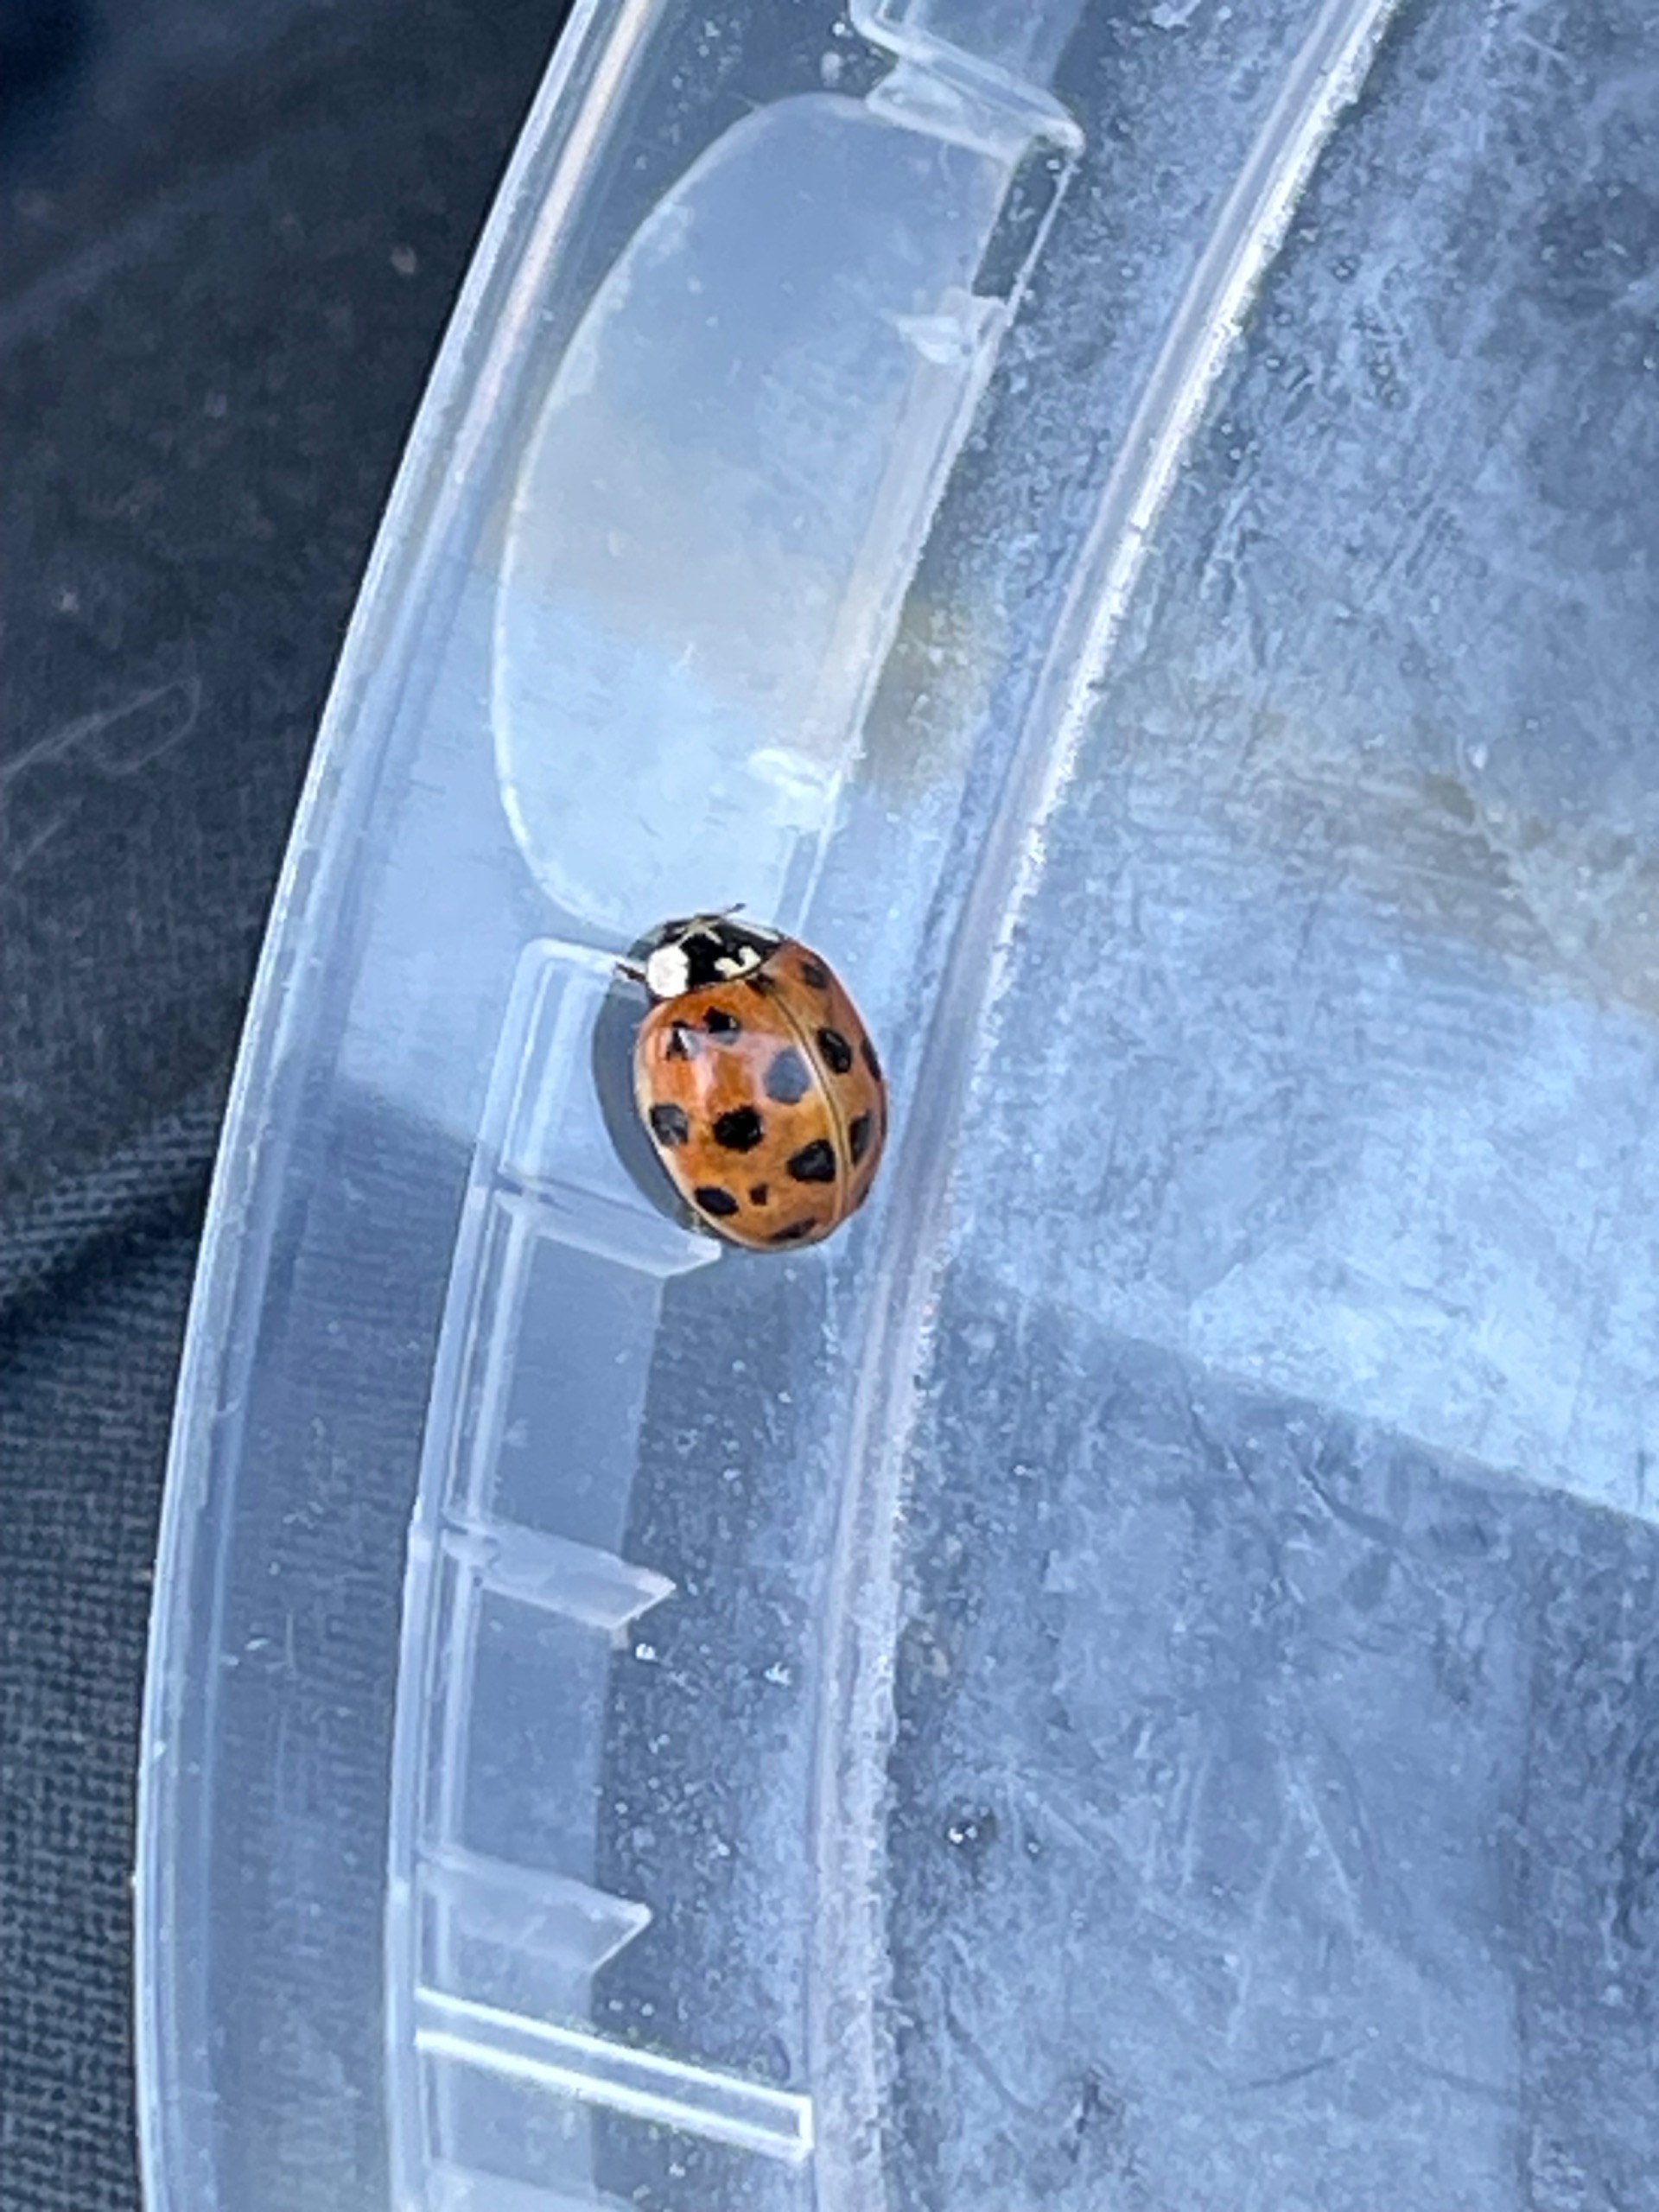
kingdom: Animalia
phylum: Arthropoda
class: Insecta
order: Coleoptera
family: Coccinellidae
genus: Harmonia
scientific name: Harmonia axyridis
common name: Harlekinmariehøne
